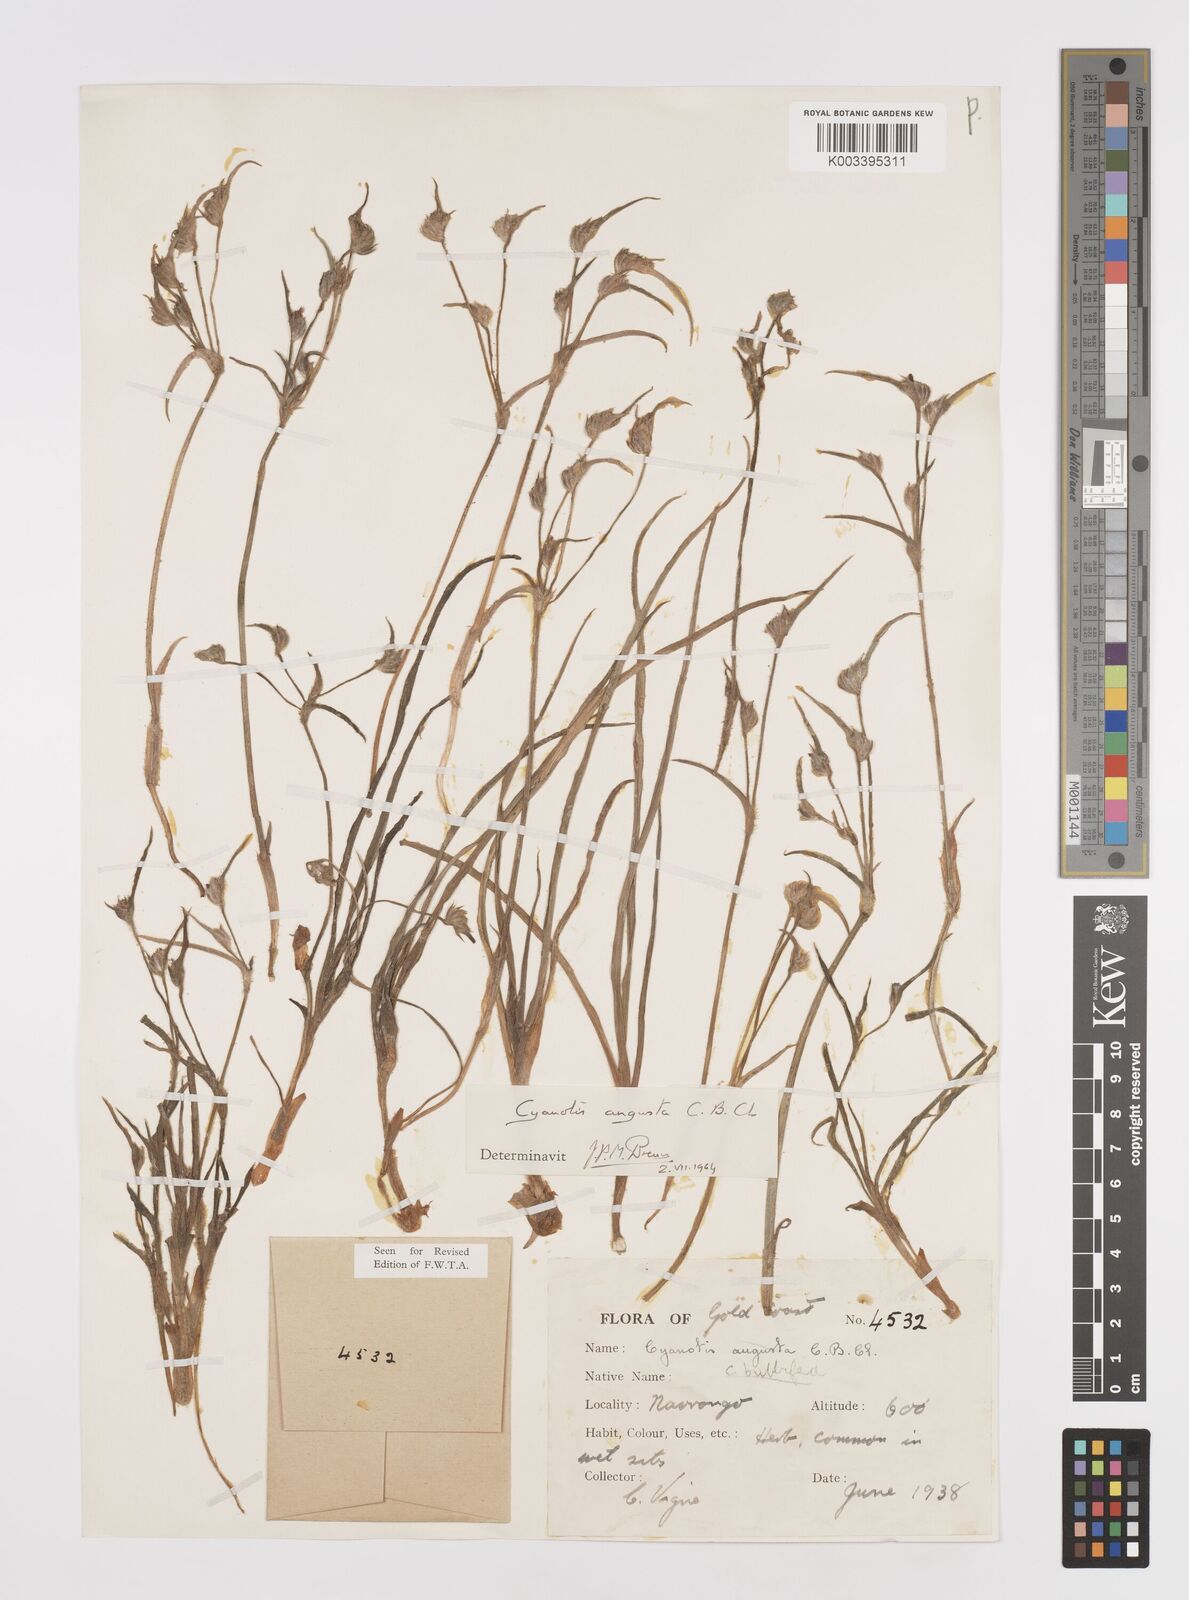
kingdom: Plantae
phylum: Tracheophyta
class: Liliopsida
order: Commelinales
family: Commelinaceae
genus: Cyanotis
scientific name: Cyanotis angusta
